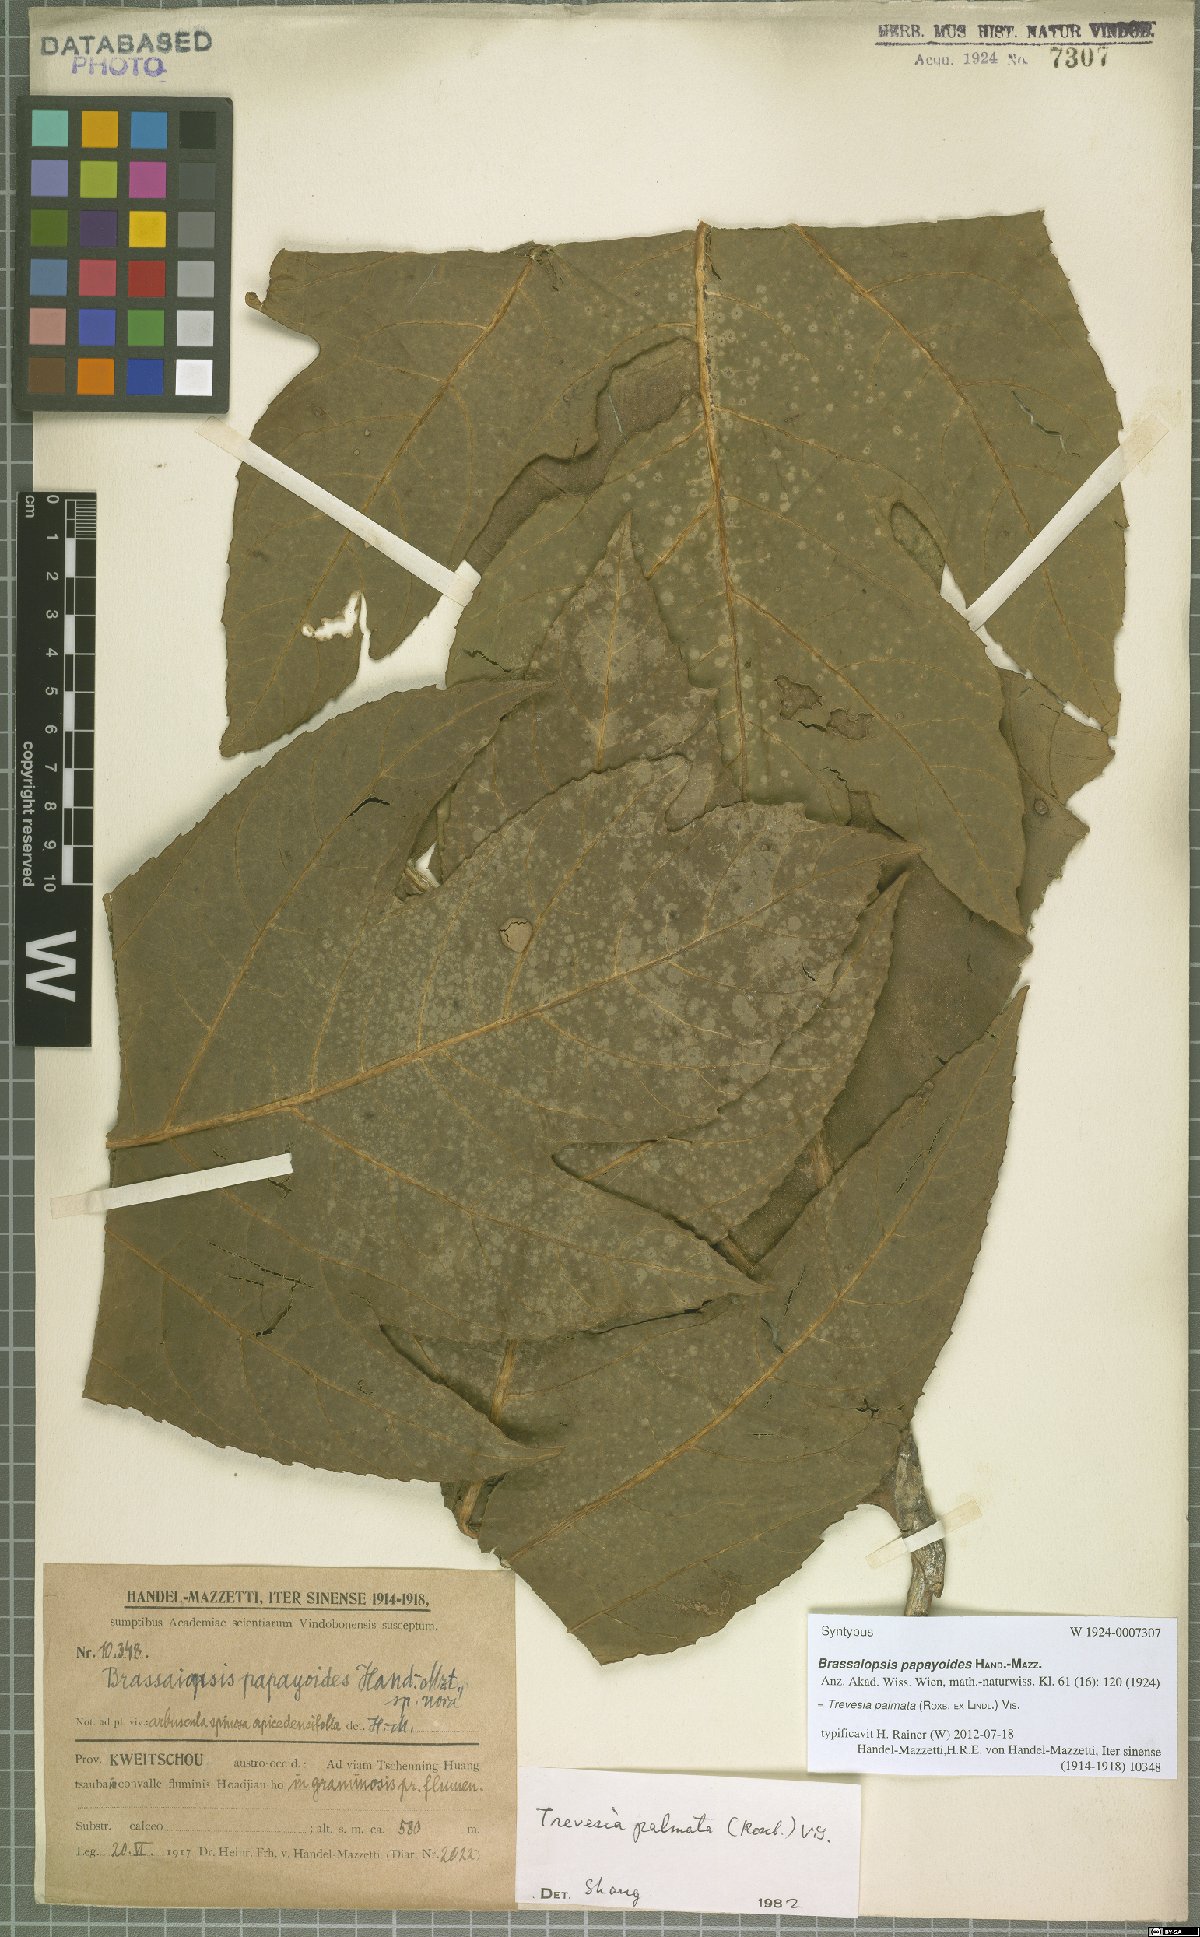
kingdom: Plantae
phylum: Tracheophyta
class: Magnoliopsida
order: Apiales
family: Araliaceae
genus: Trevesia
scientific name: Trevesia palmata
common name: Snowflakeplant
